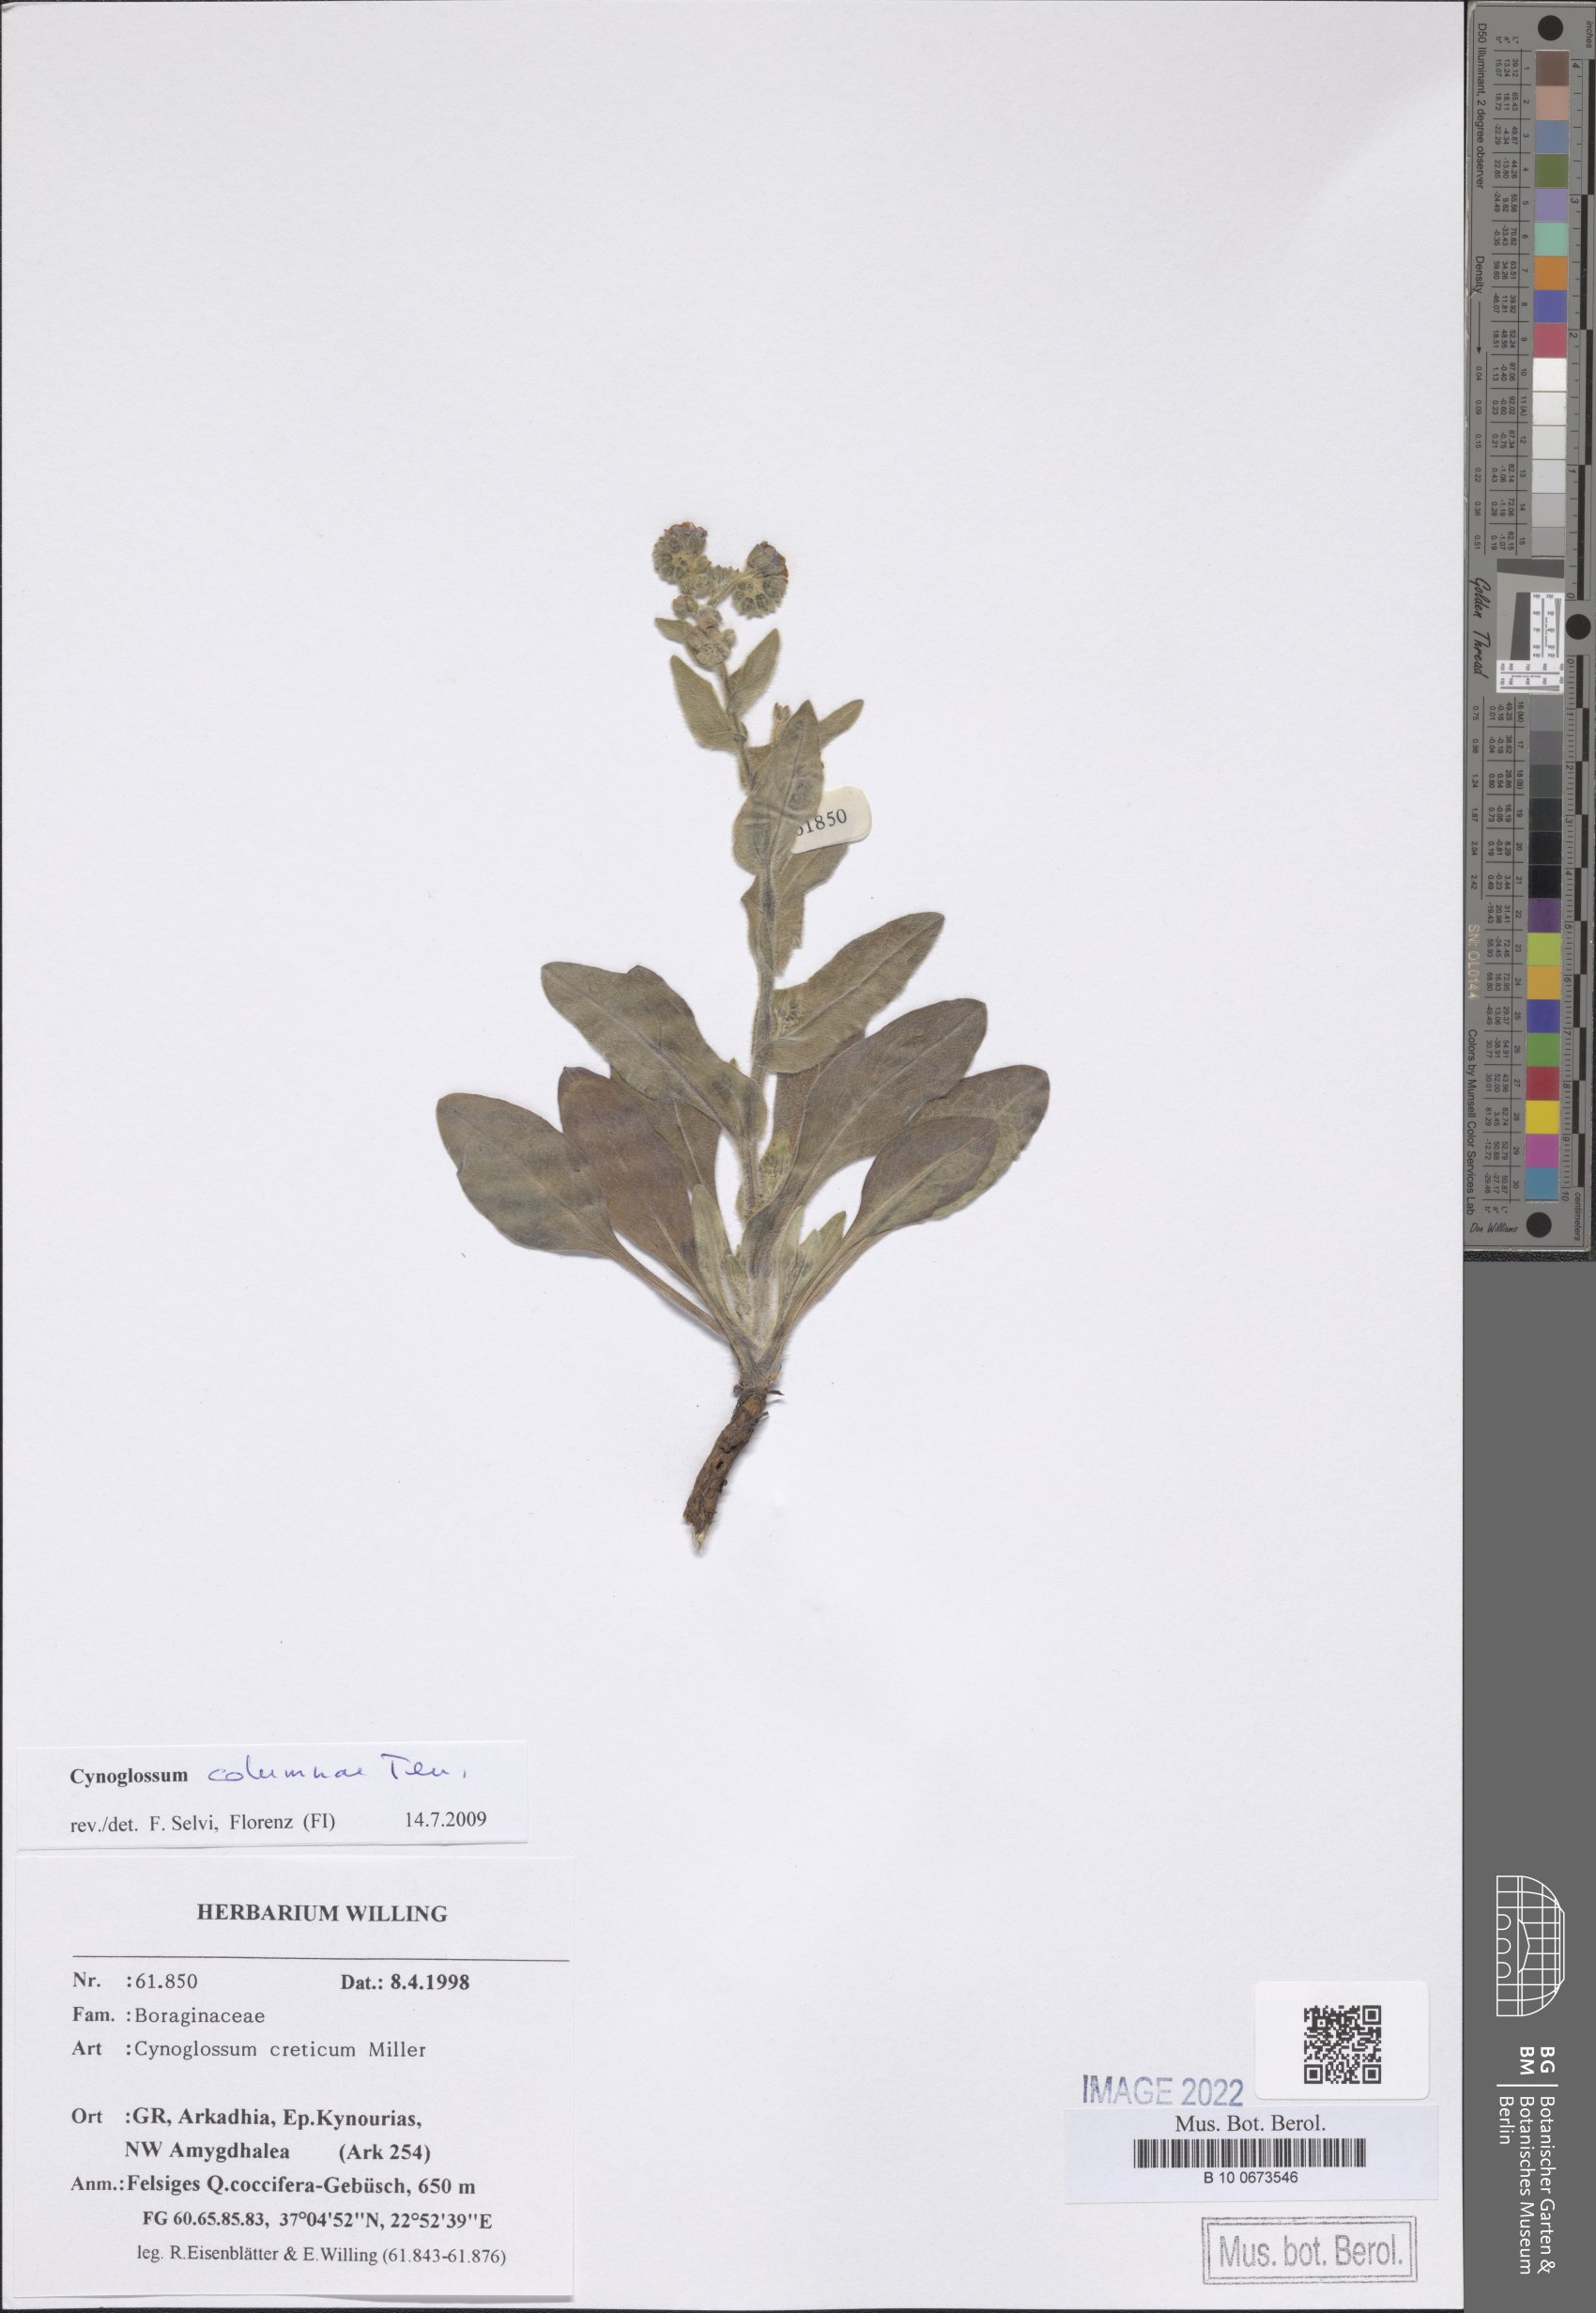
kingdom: Plantae
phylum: Tracheophyta
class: Magnoliopsida
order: Boraginales
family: Boraginaceae
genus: Rindera
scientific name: Rindera columnae
